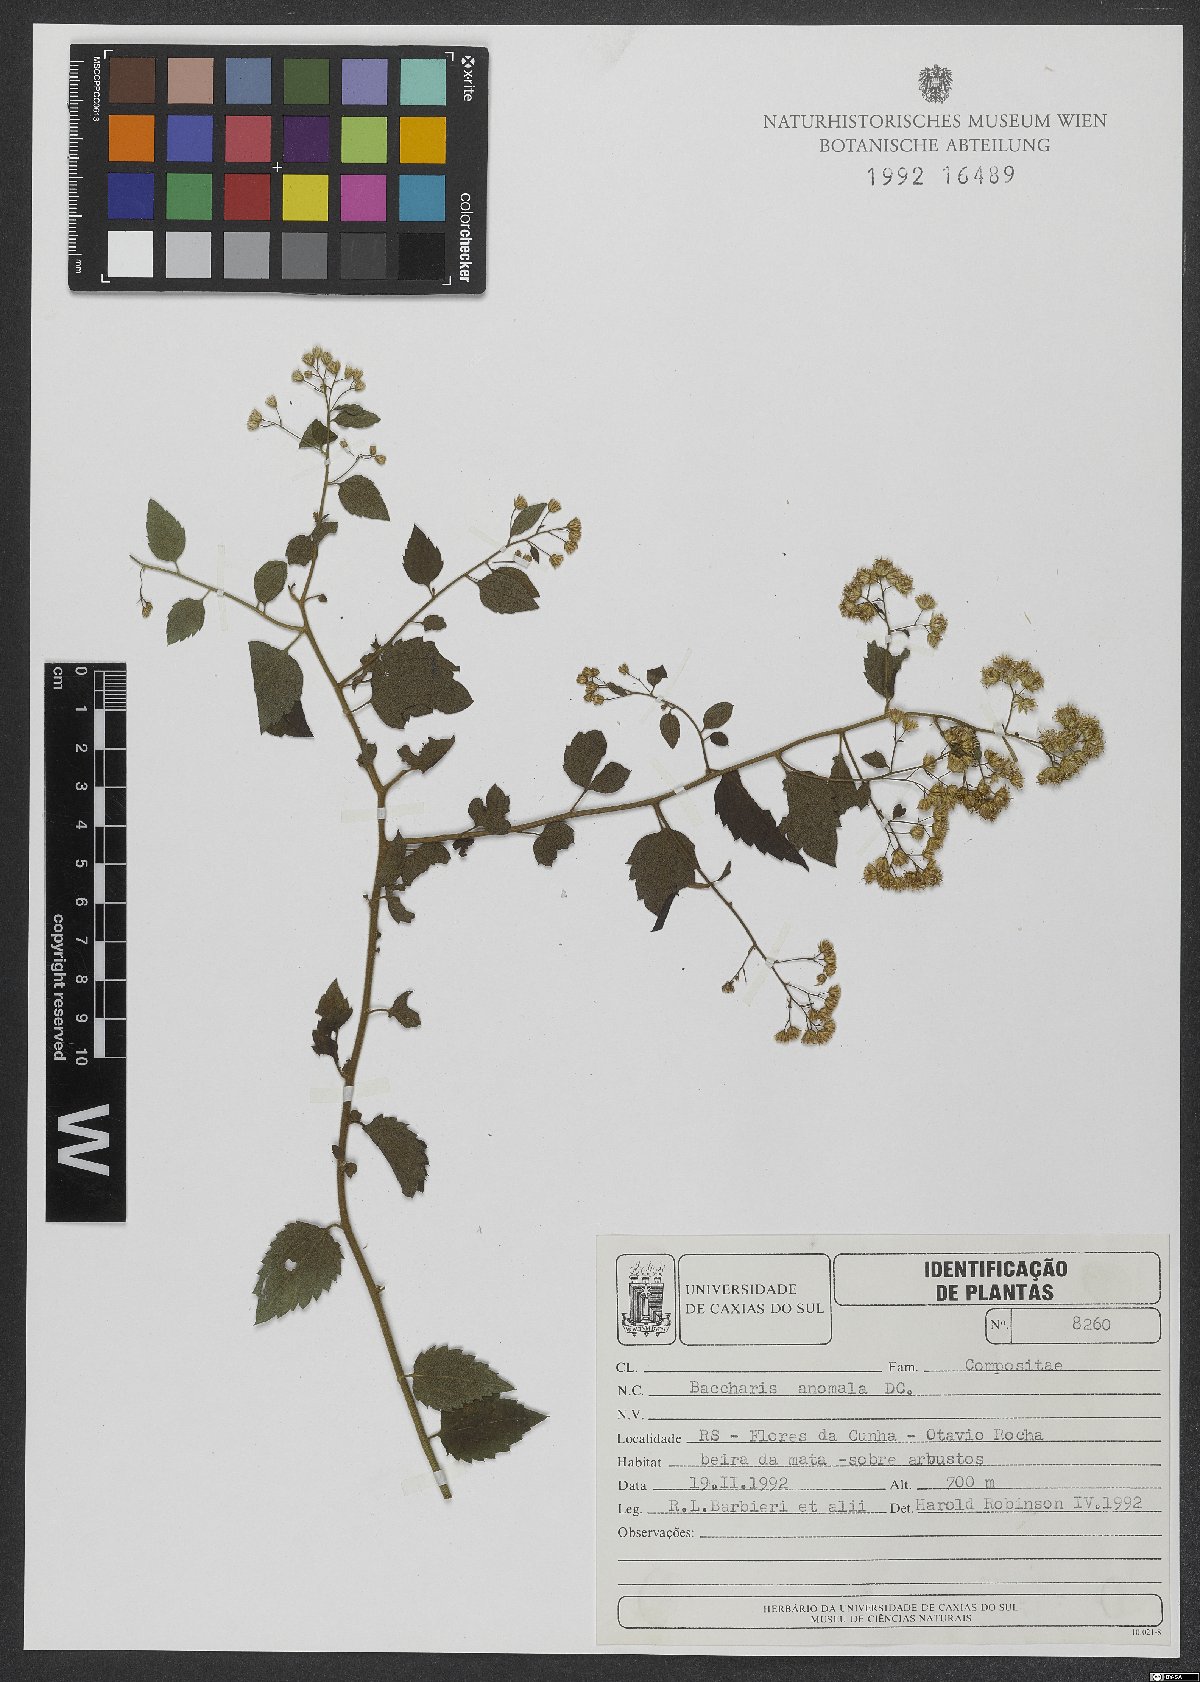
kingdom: Plantae
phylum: Tracheophyta
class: Magnoliopsida
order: Asterales
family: Asteraceae
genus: Baccharis
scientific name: Baccharis anomala
